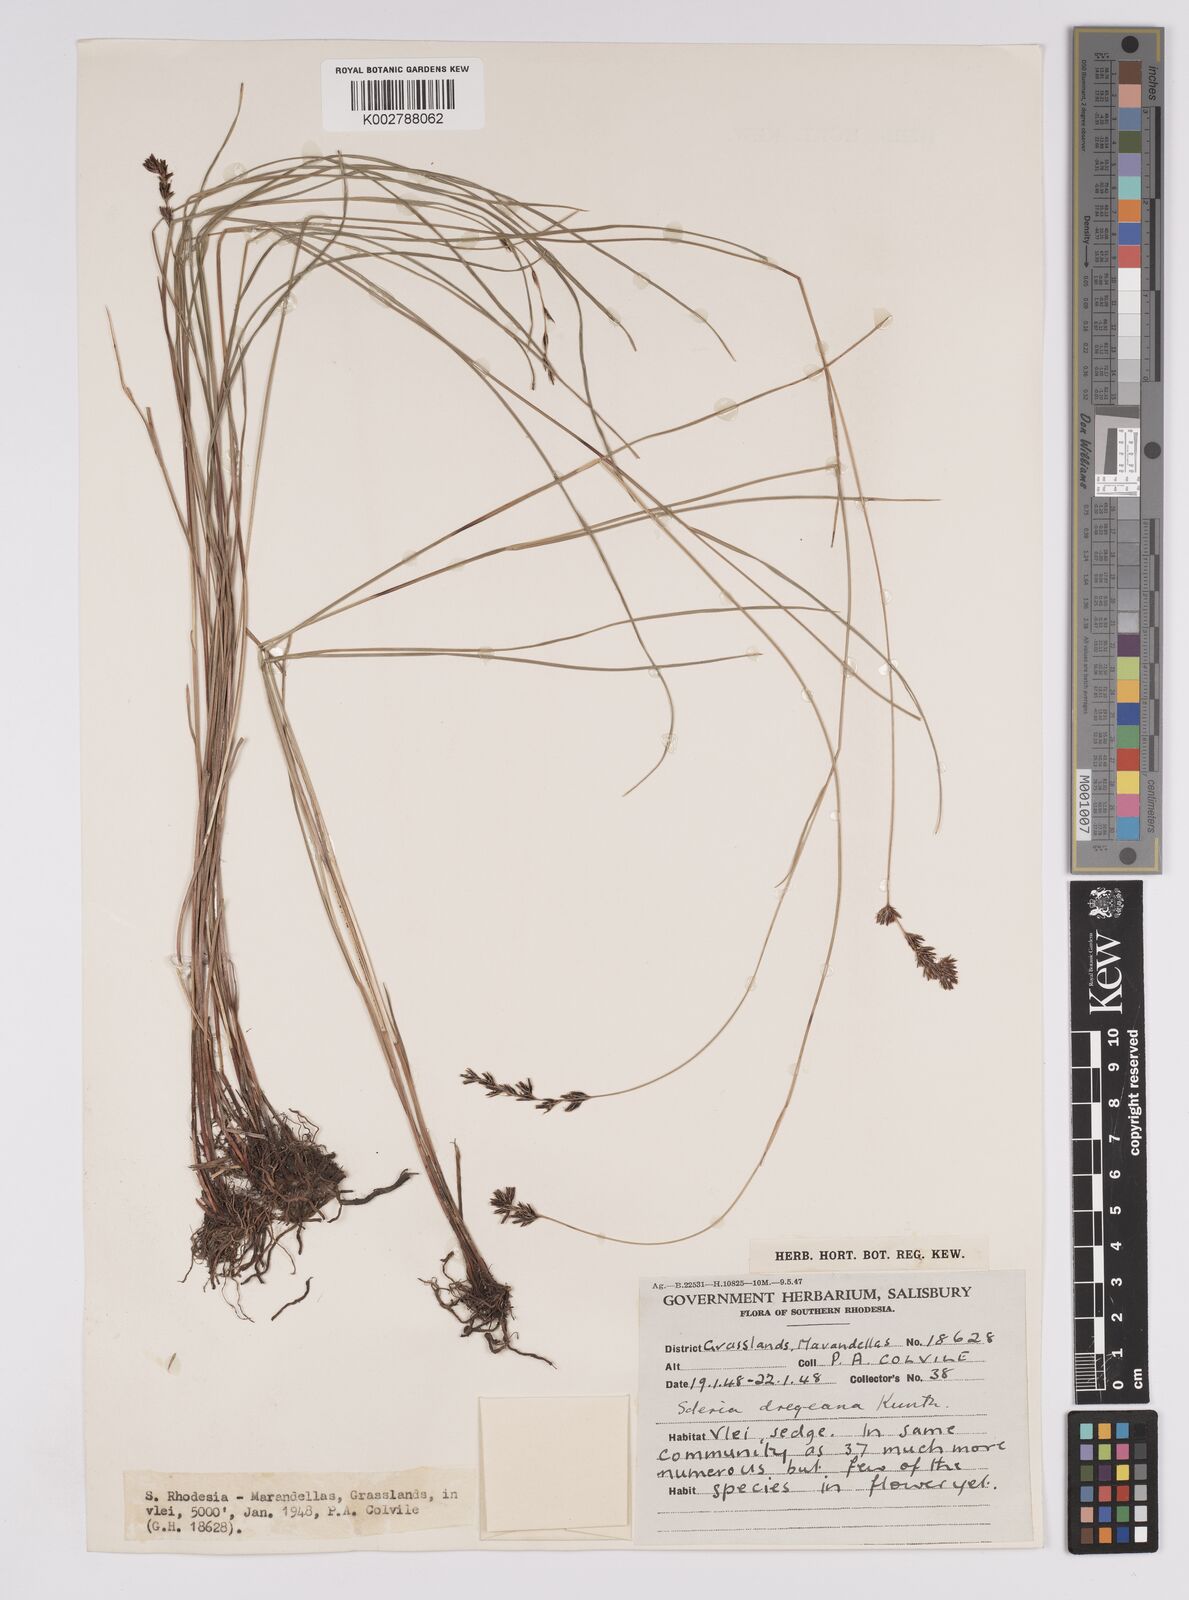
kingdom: Plantae
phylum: Tracheophyta
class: Liliopsida
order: Poales
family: Cyperaceae
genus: Scleria
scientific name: Scleria dregeana
